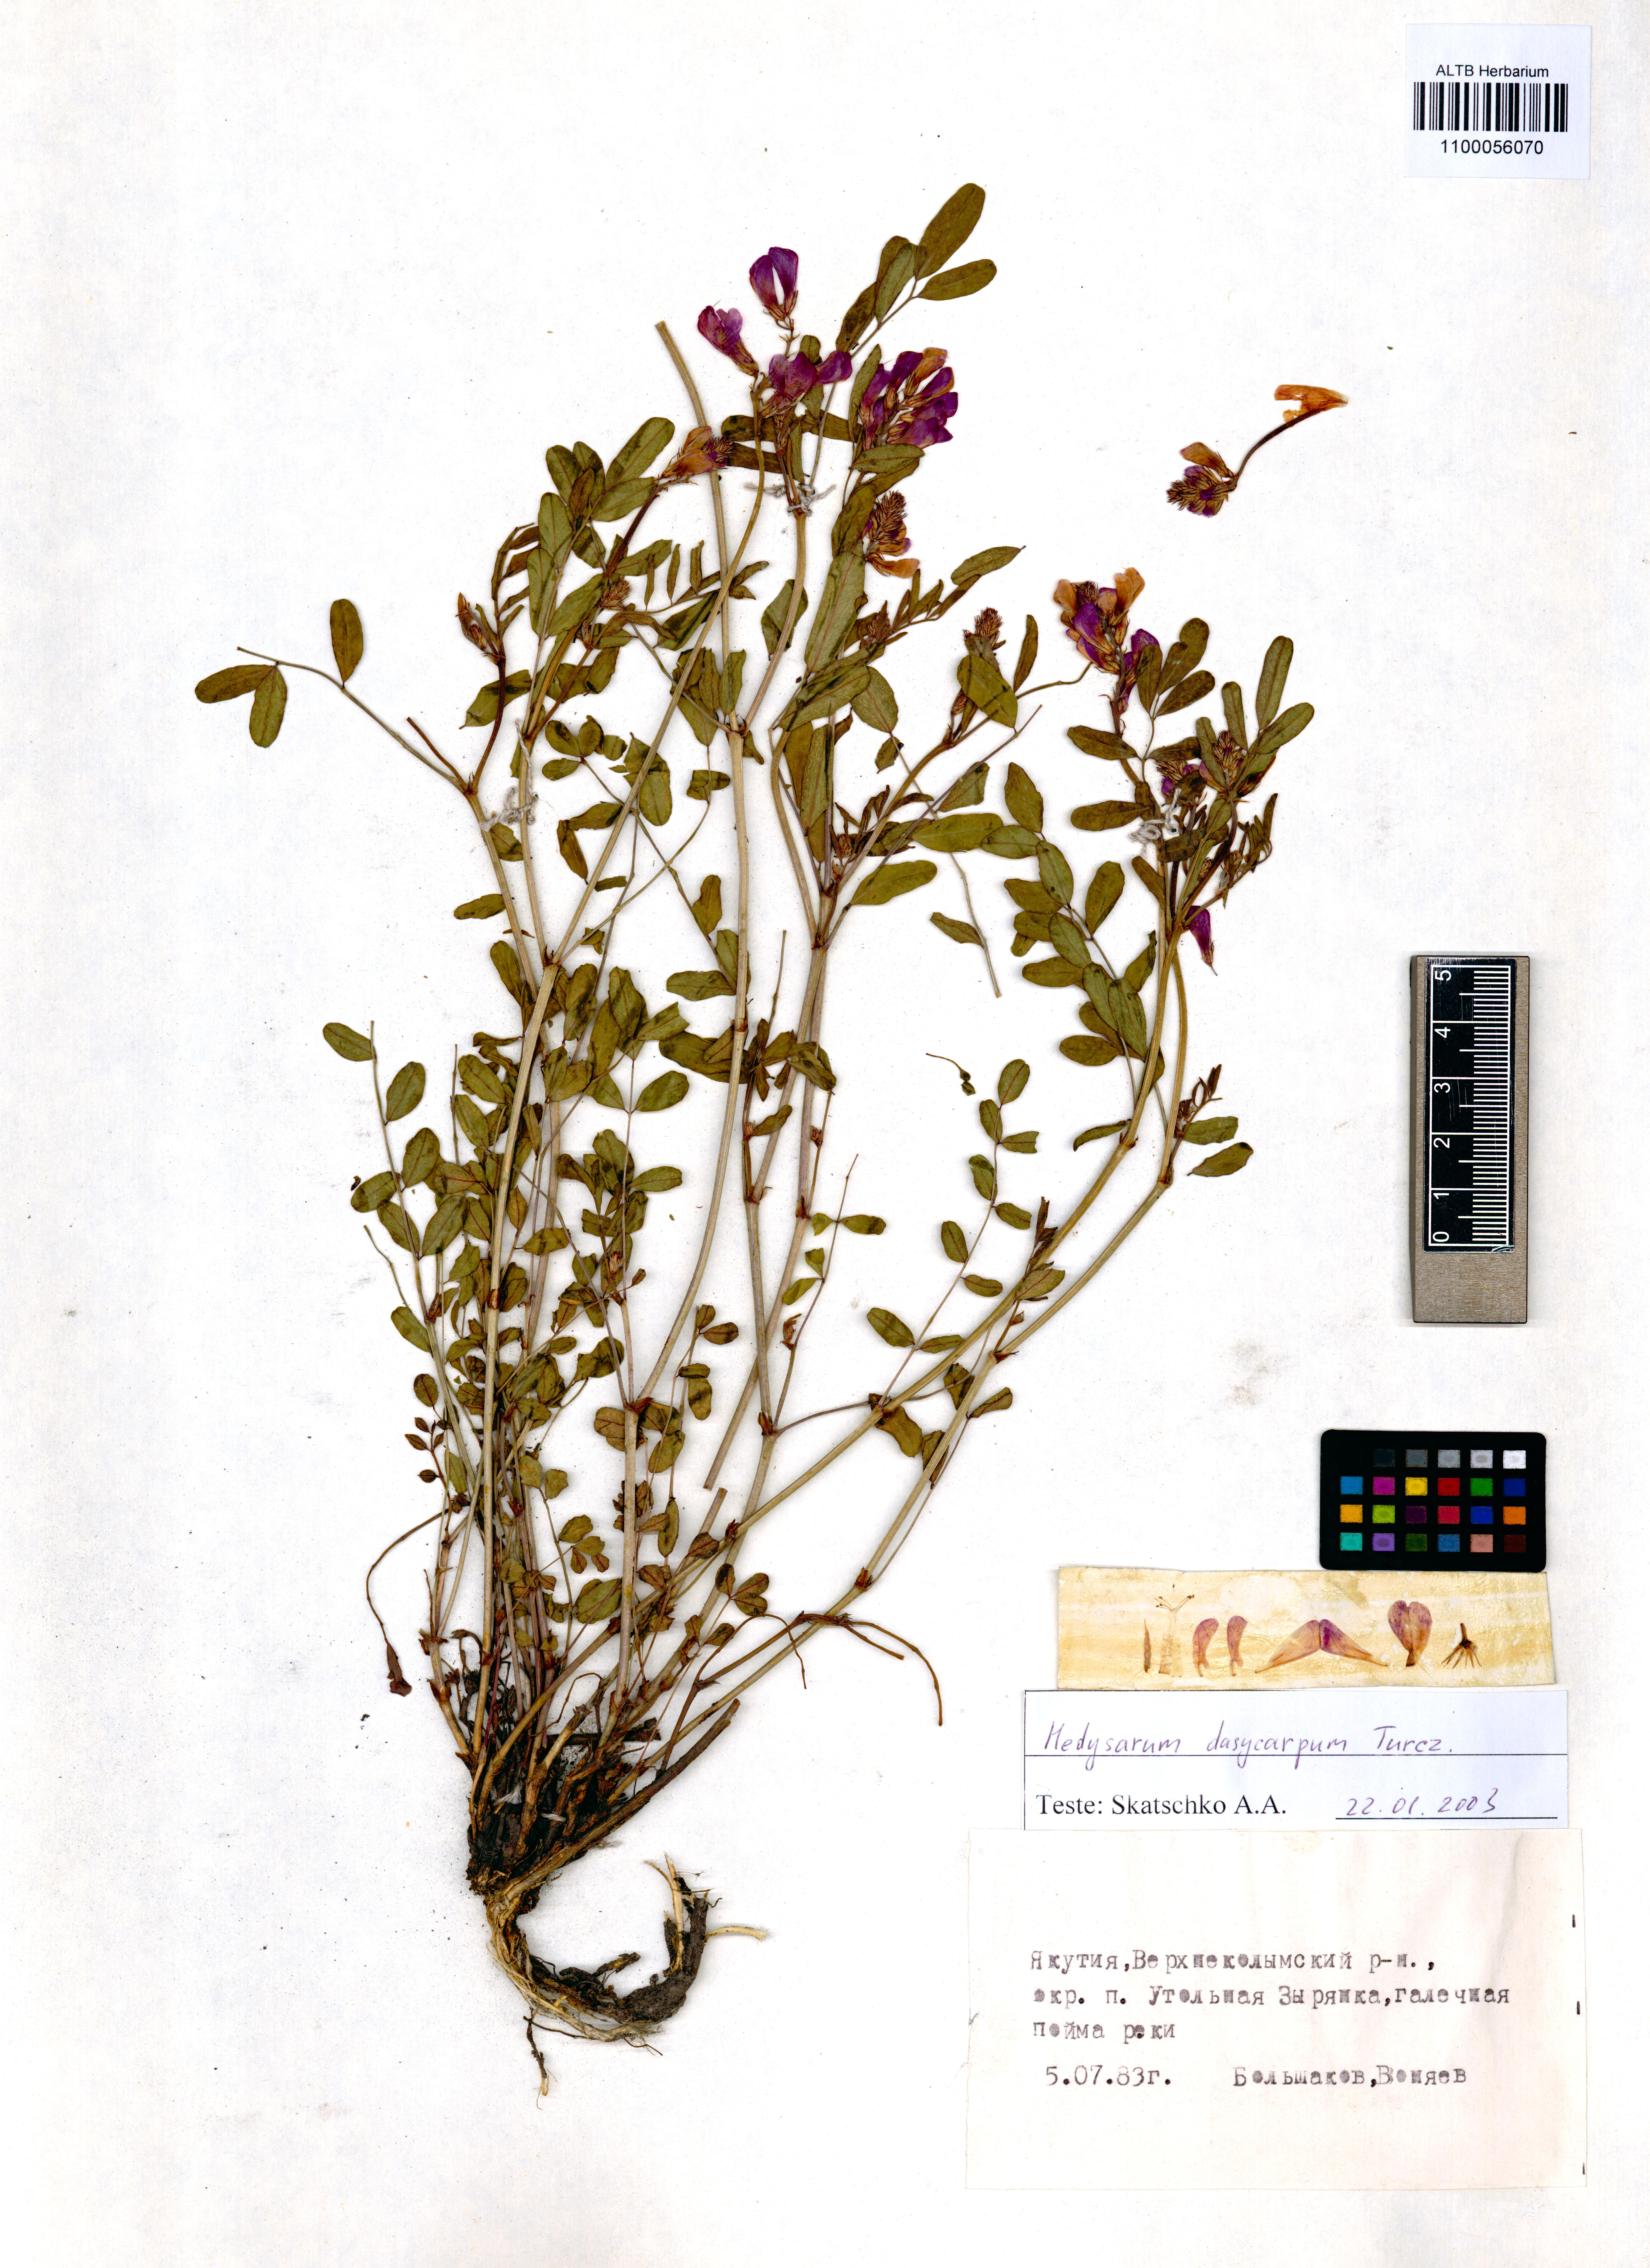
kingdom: Plantae
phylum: Tracheophyta
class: Magnoliopsida
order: Fabales
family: Fabaceae
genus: Hedysarum
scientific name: Hedysarum dasycarpum
